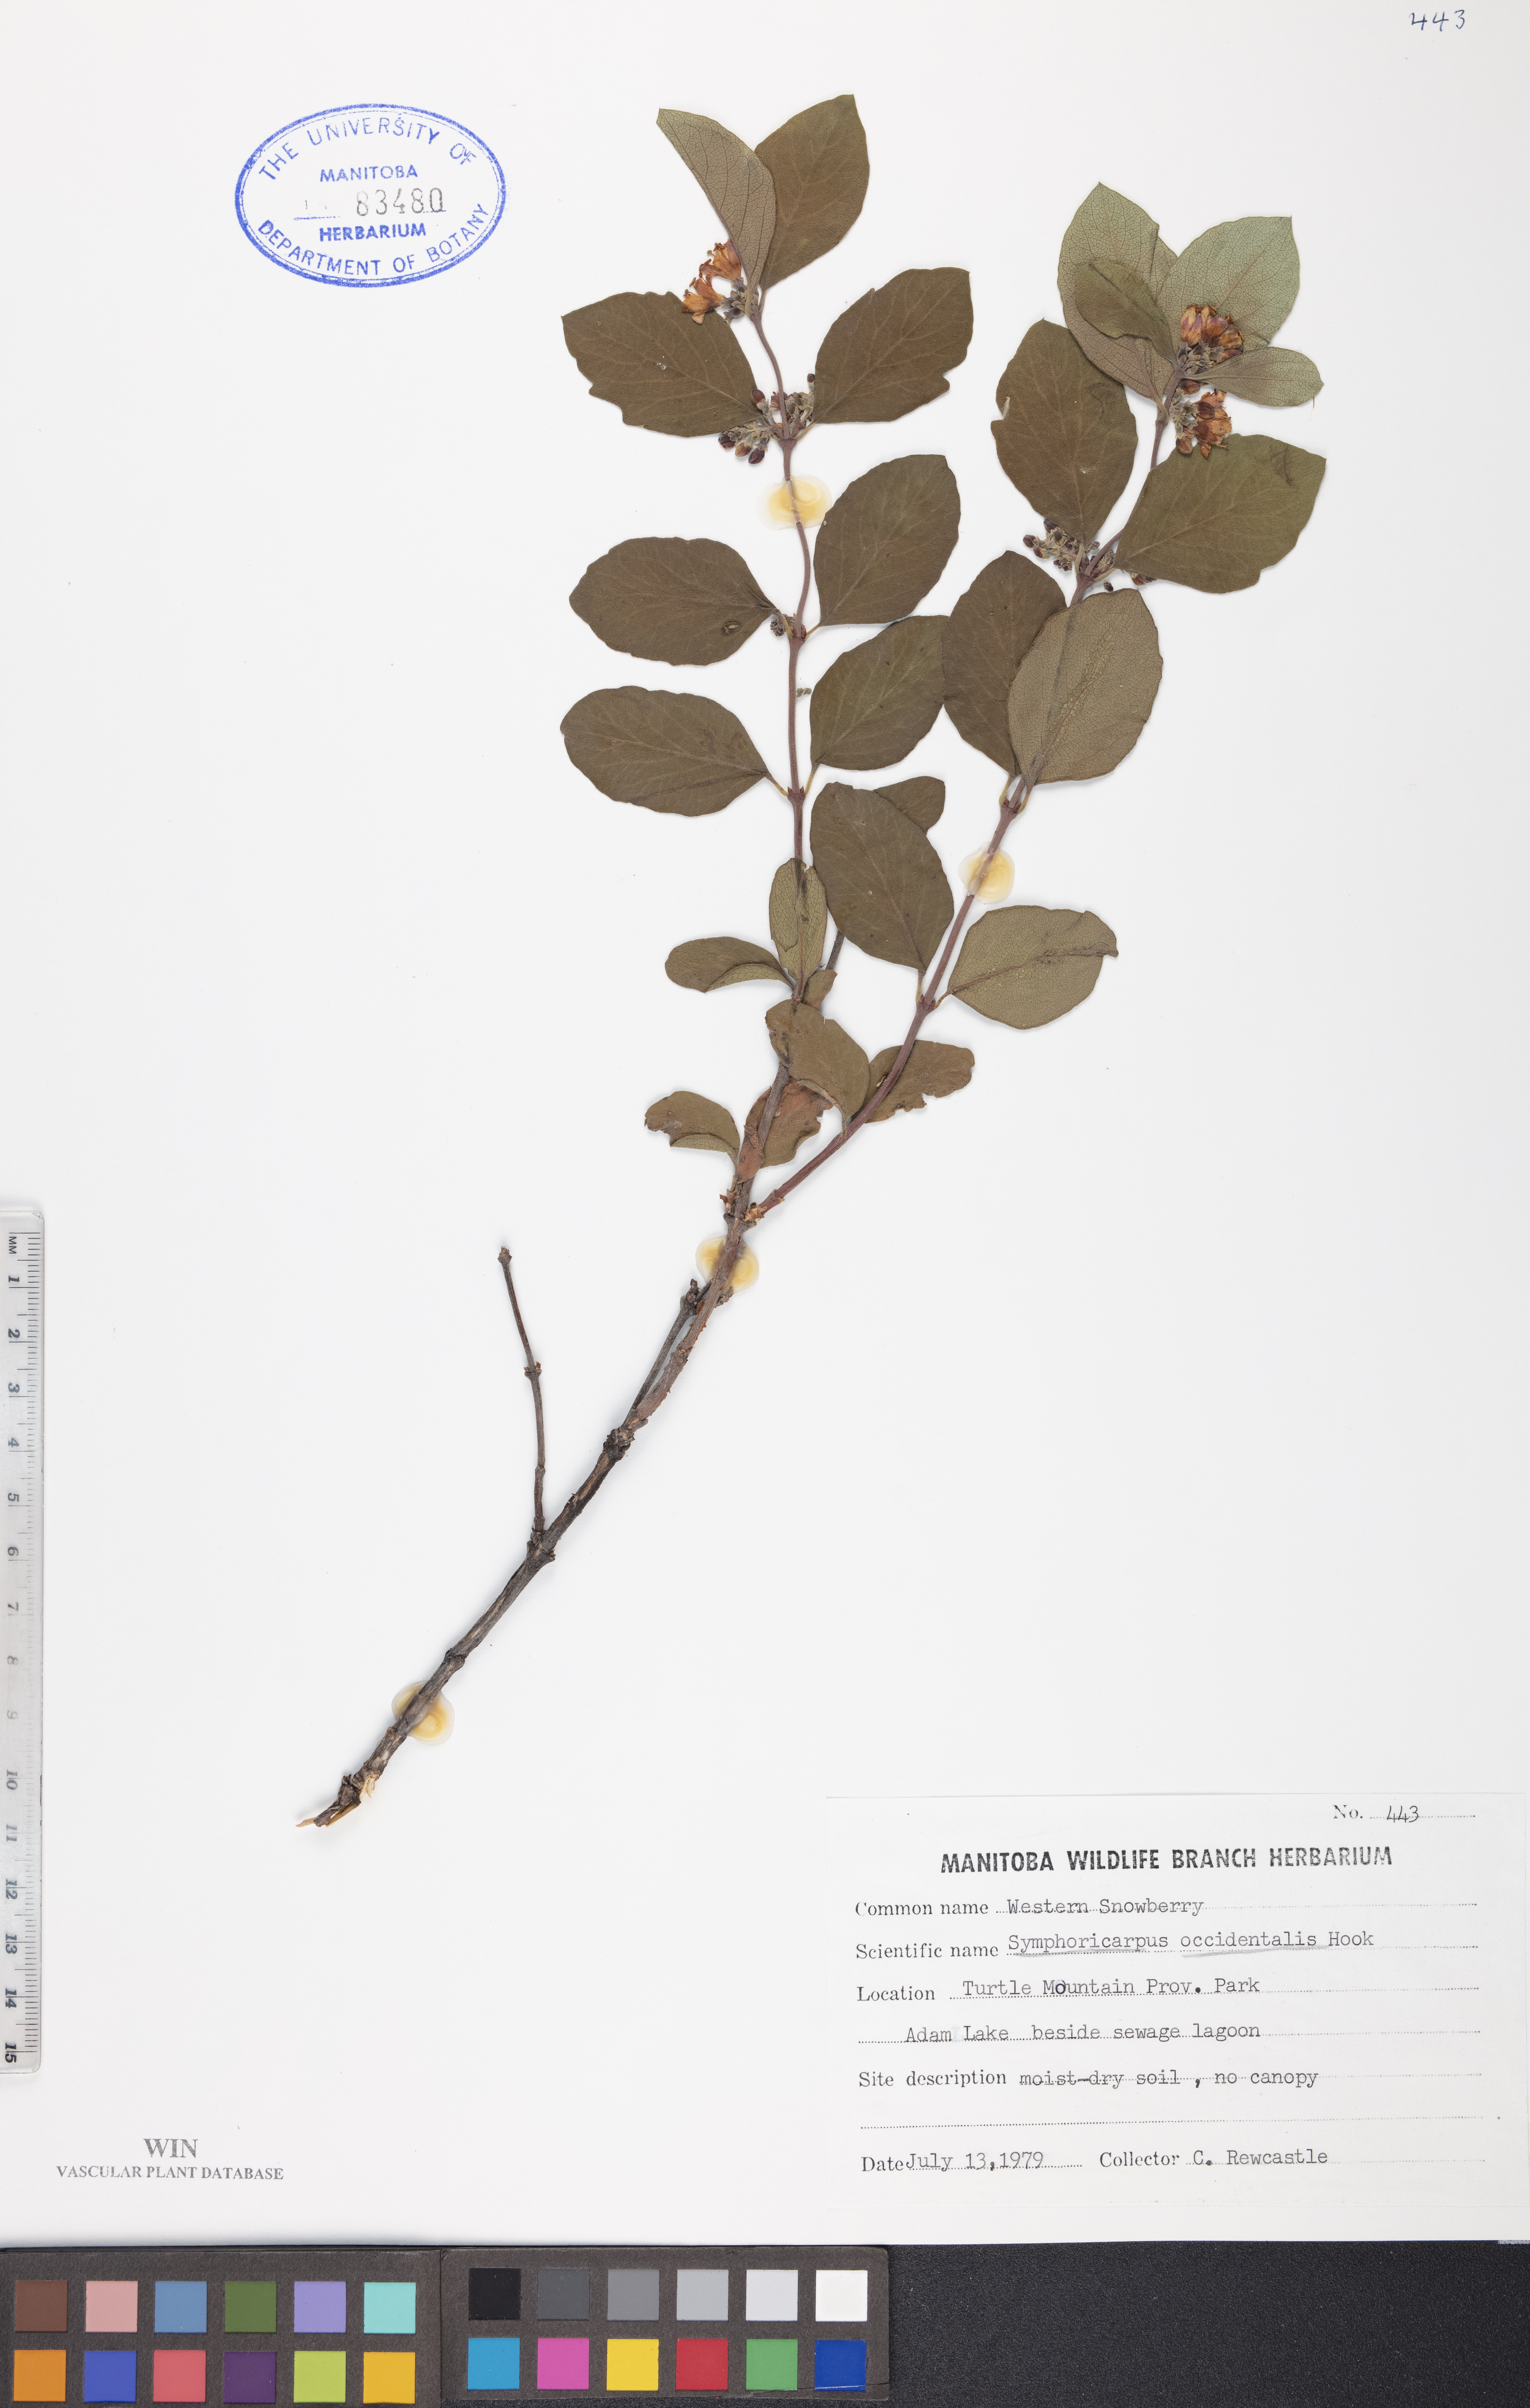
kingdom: Plantae
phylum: Tracheophyta
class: Magnoliopsida
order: Dipsacales
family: Caprifoliaceae
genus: Symphoricarpos
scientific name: Symphoricarpos occidentalis
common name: Wolfberry
